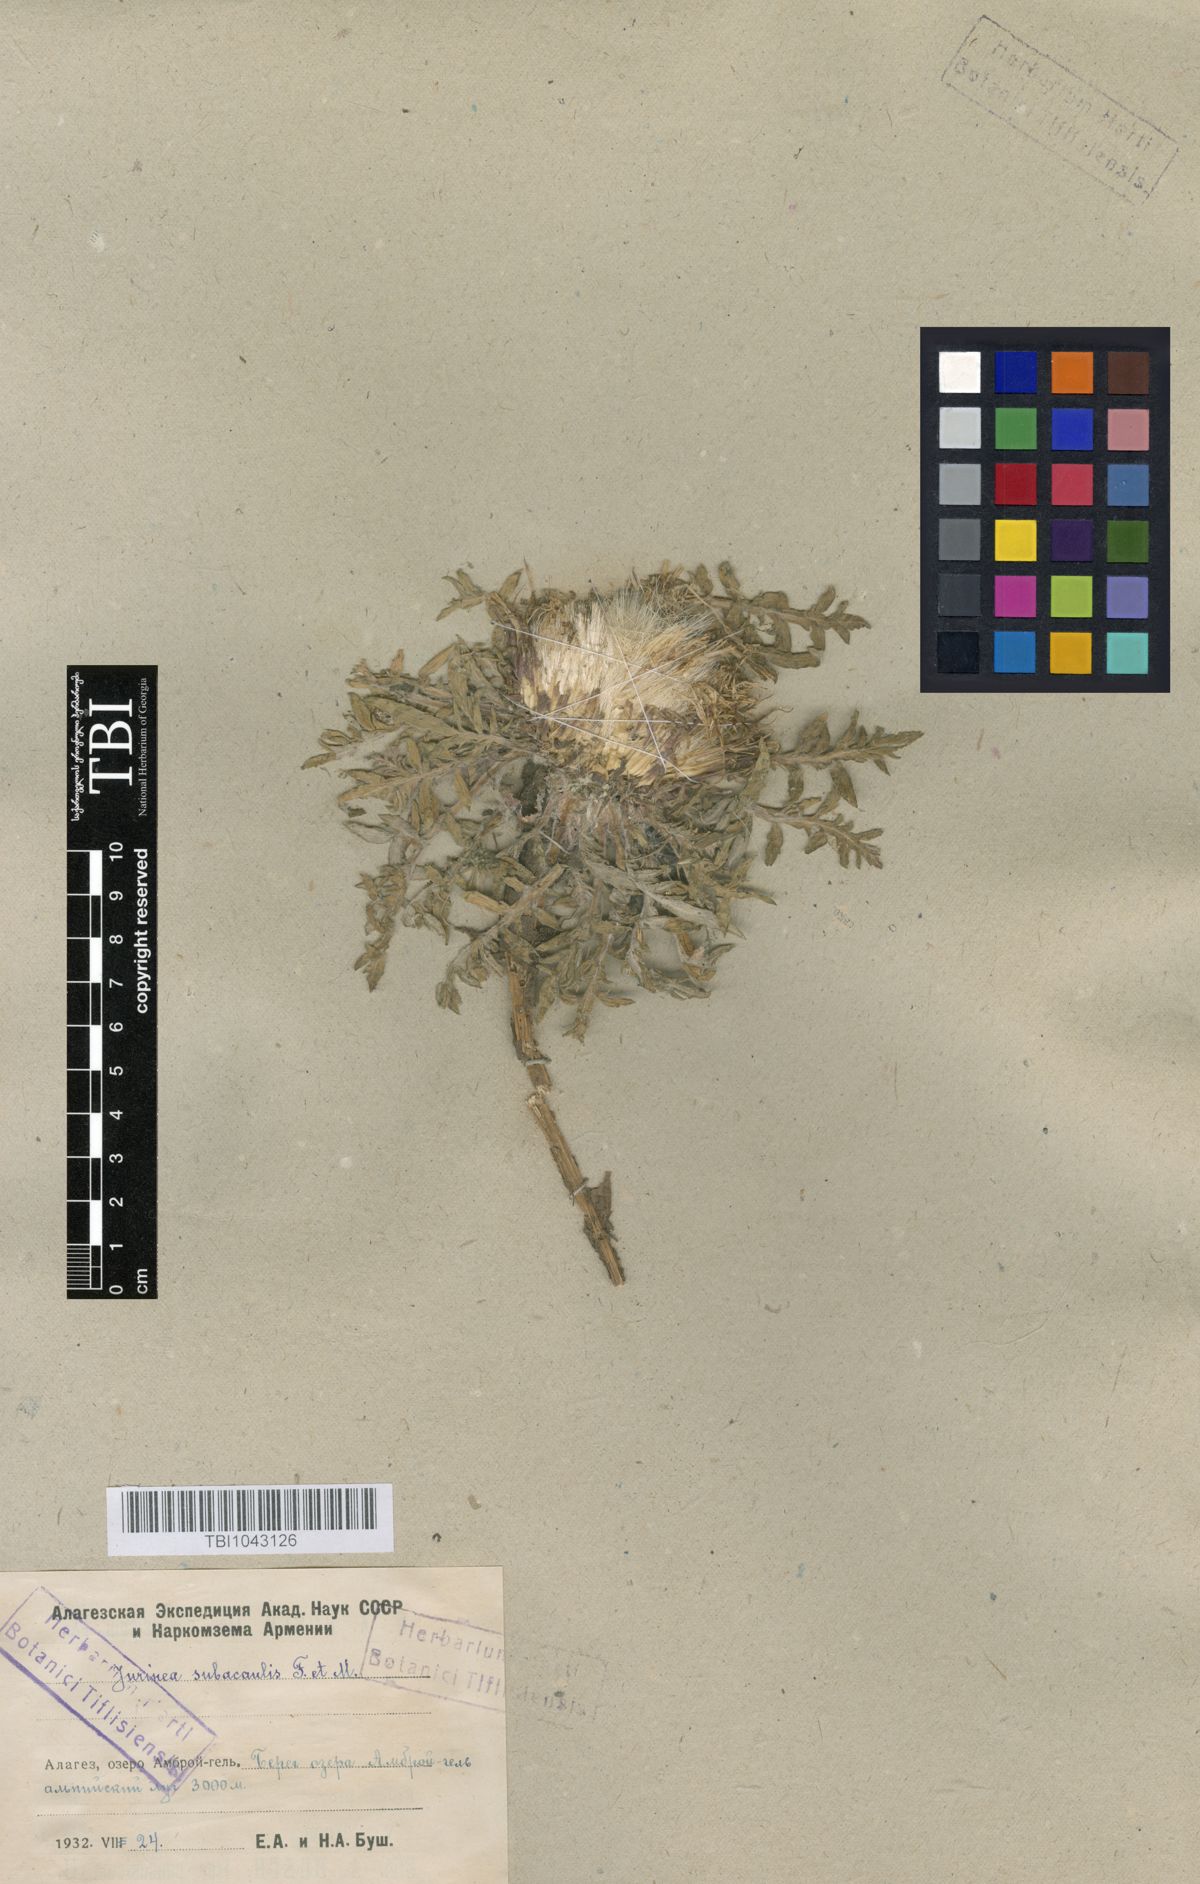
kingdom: Plantae
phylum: Tracheophyta
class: Magnoliopsida
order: Asterales
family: Asteraceae
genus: Jurinea
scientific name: Jurinea moschus
